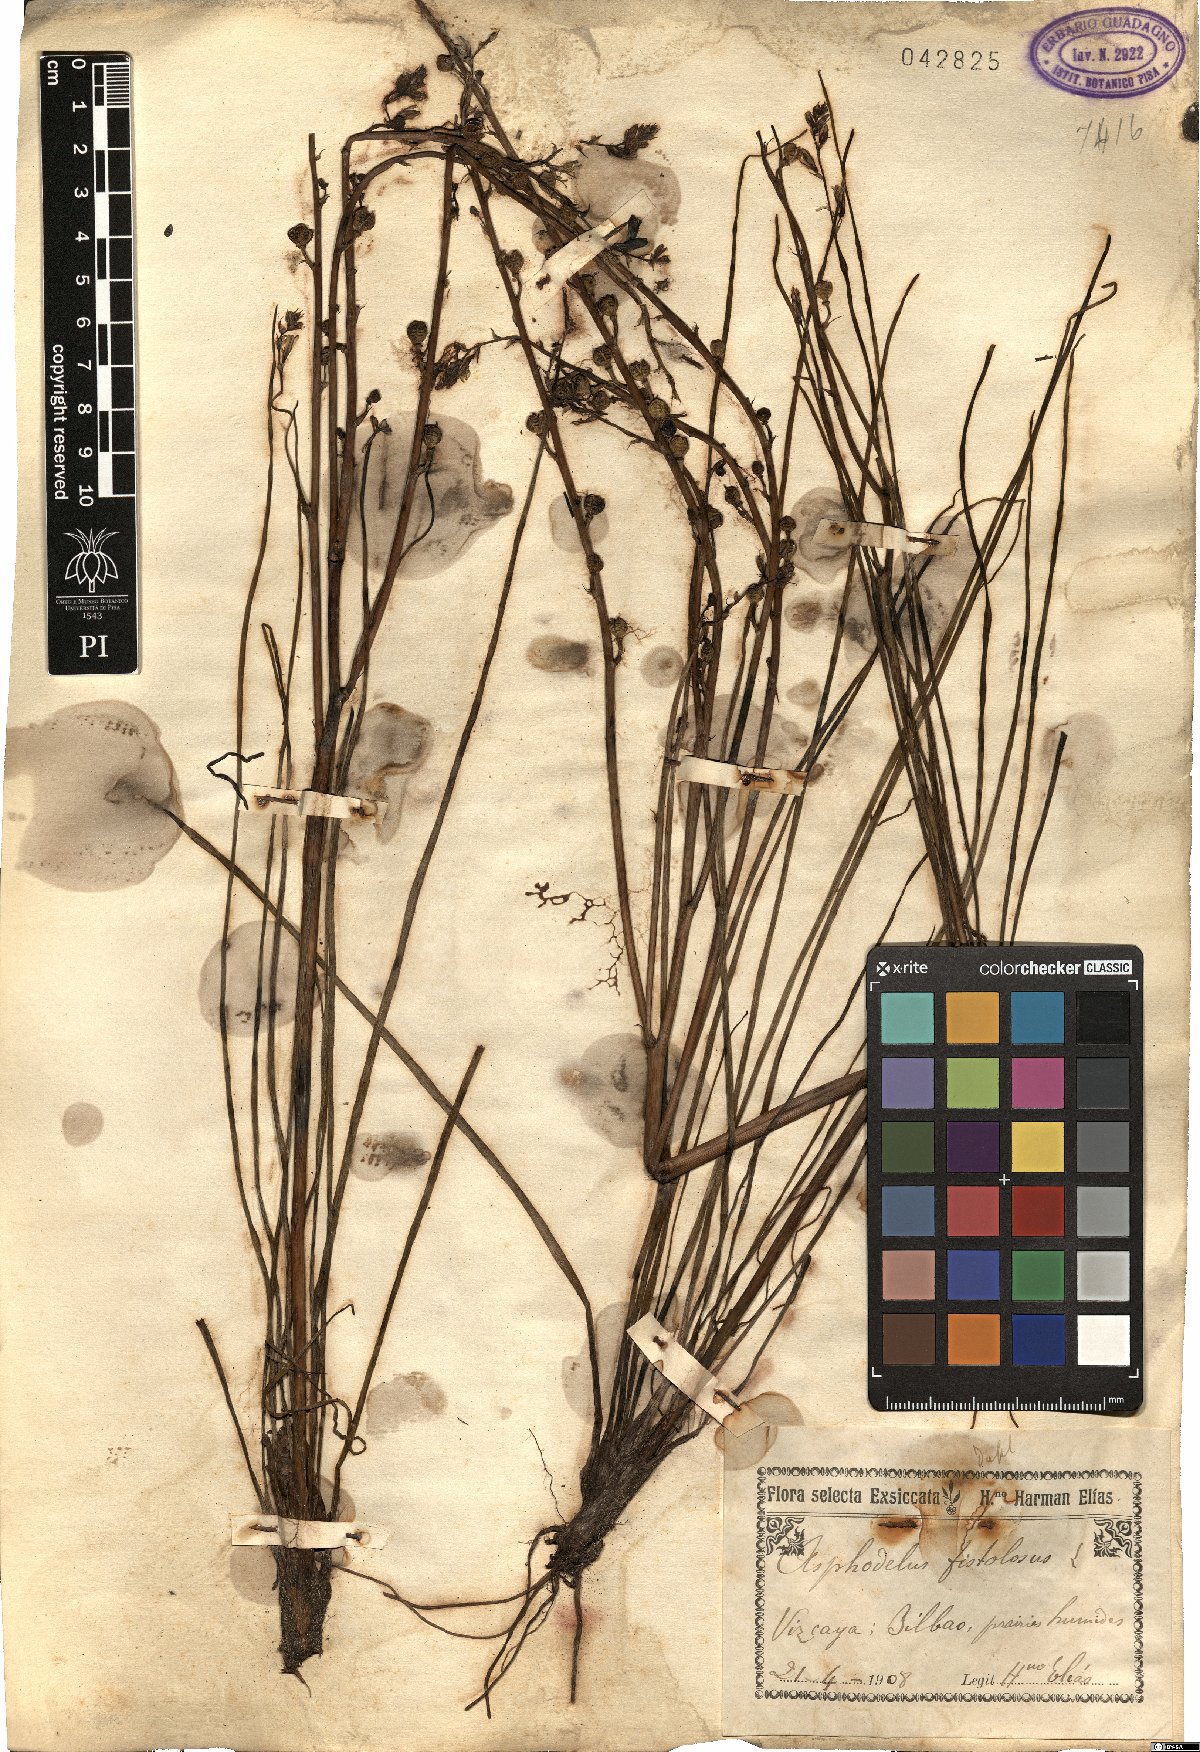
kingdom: Plantae
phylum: Tracheophyta
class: Liliopsida
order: Asparagales
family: Asphodelaceae
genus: Asphodelus
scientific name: Asphodelus fistulosus
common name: Onionweed
